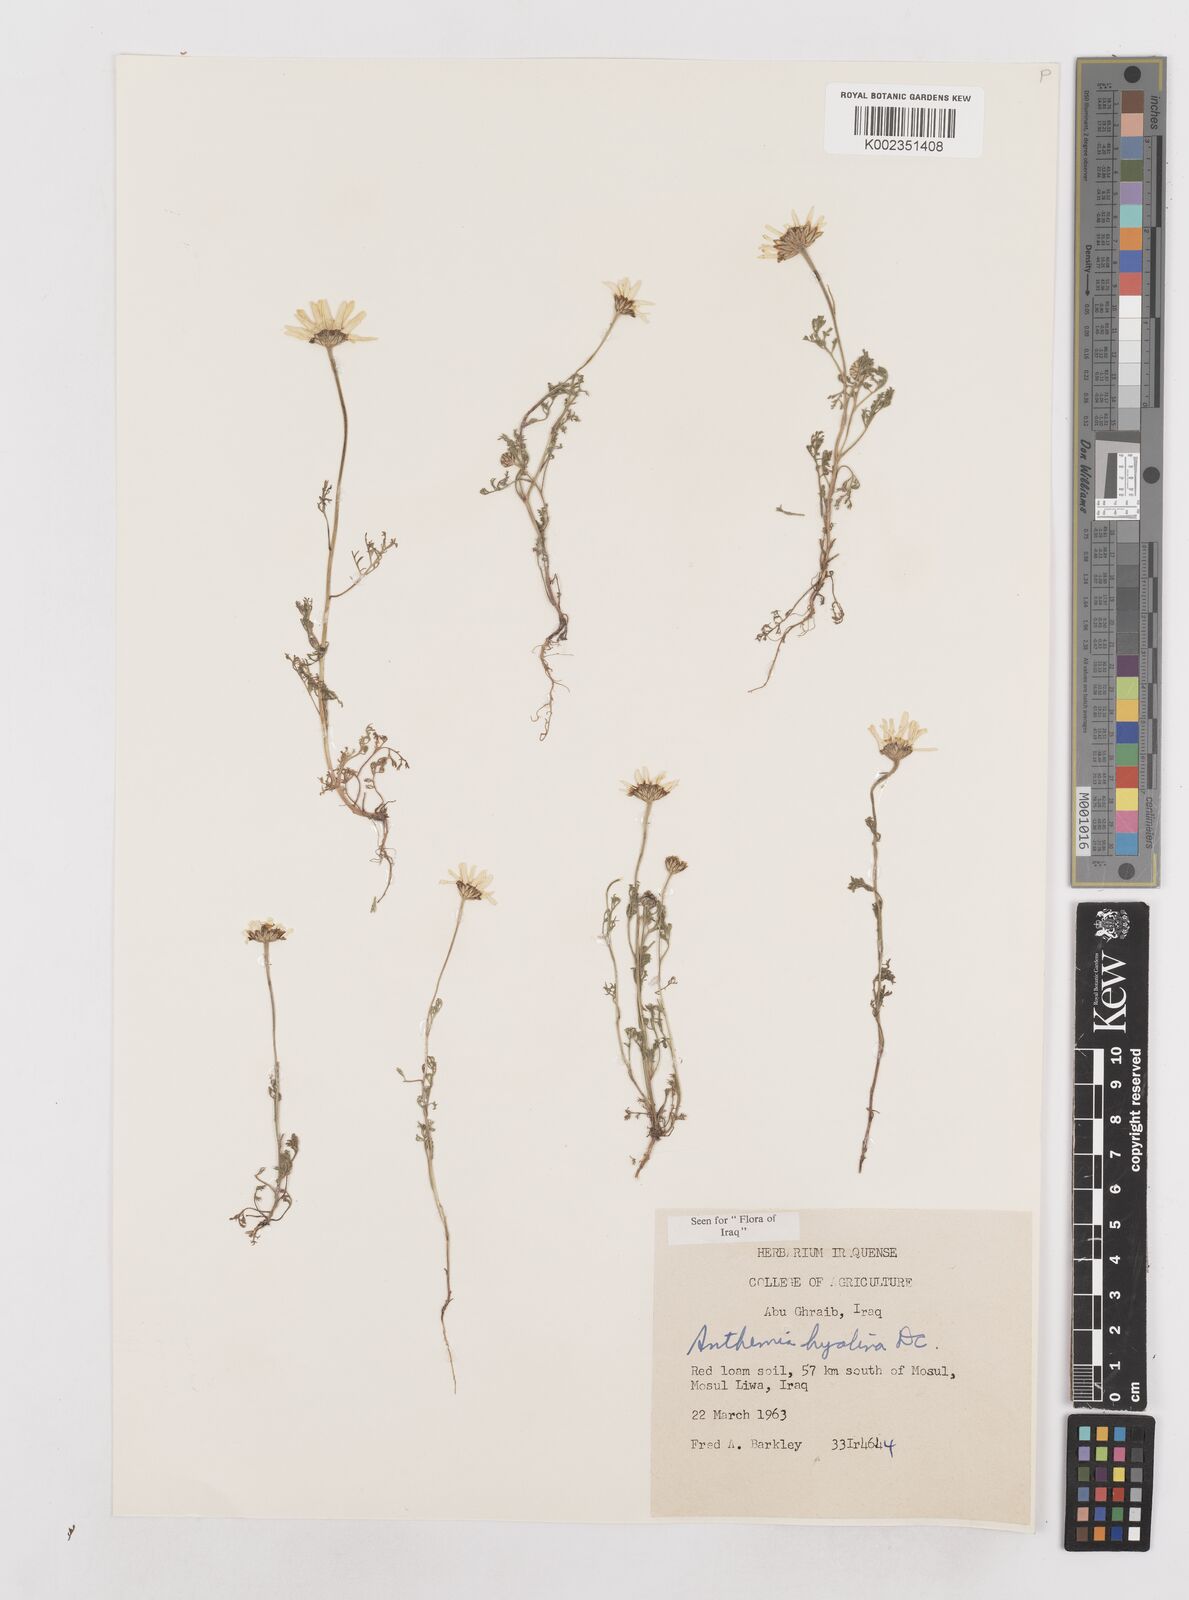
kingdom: Plantae
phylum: Tracheophyta
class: Magnoliopsida
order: Asterales
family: Asteraceae
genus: Anthemis
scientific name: Anthemis hyalina
